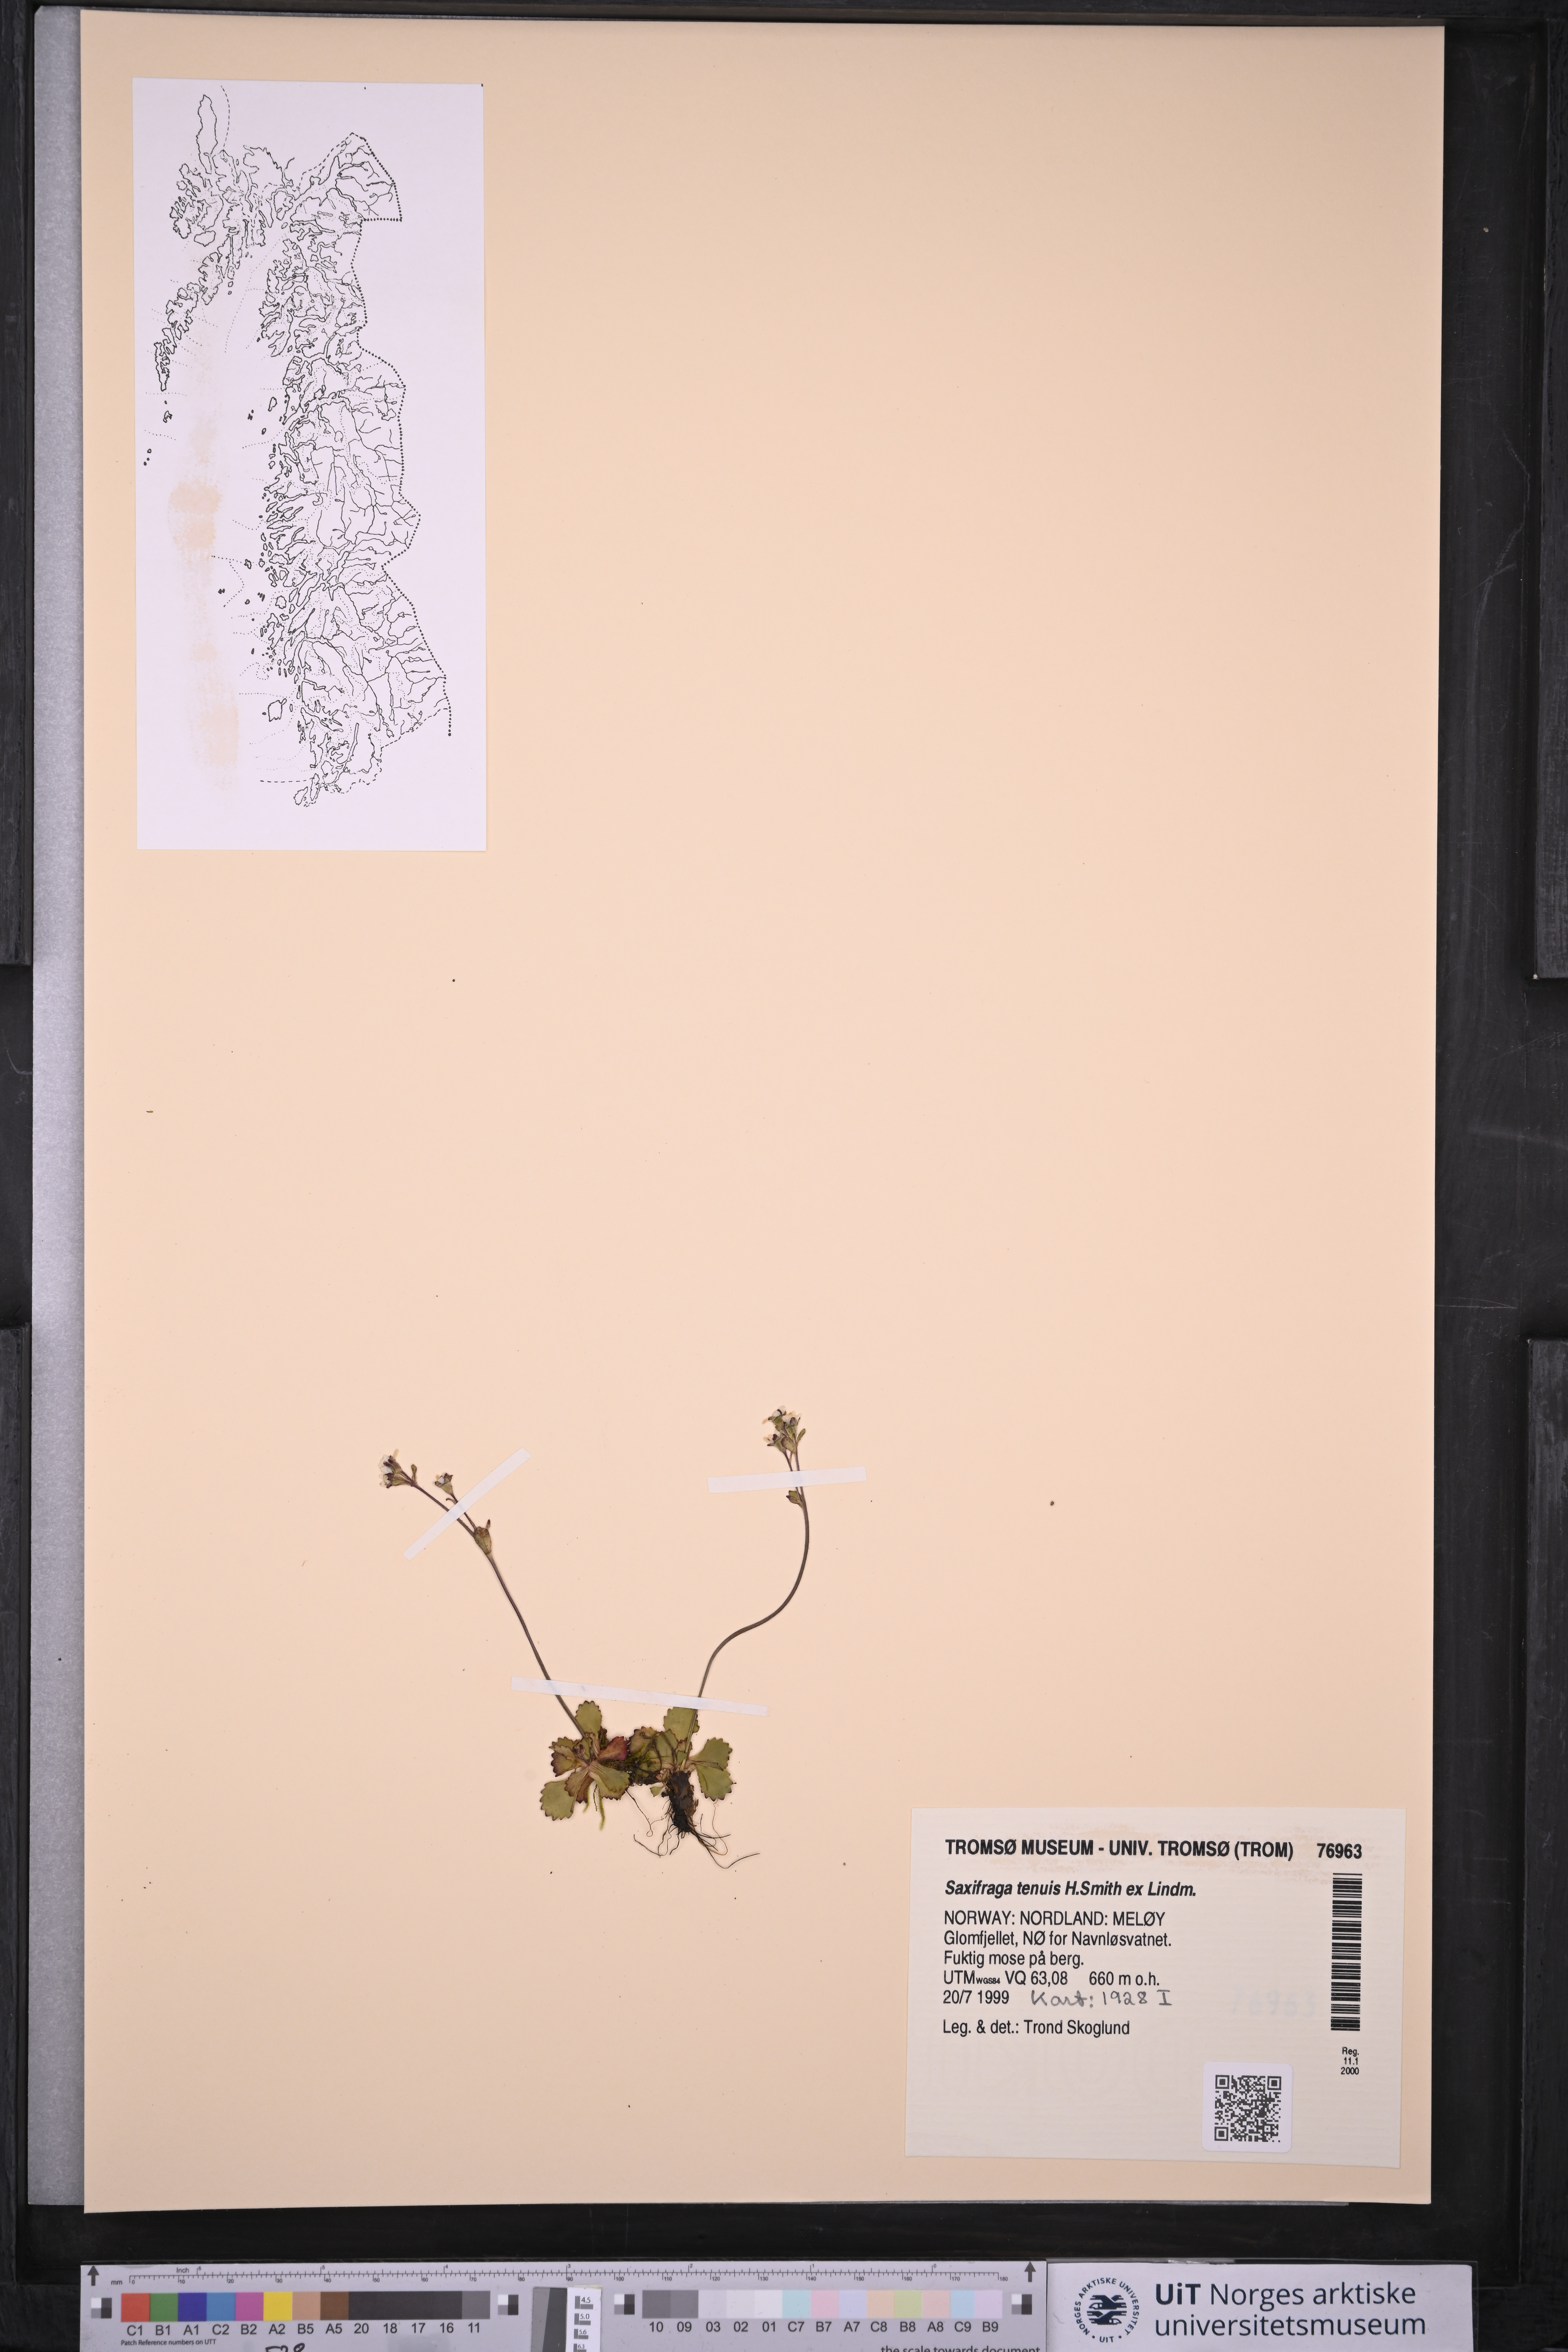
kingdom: Plantae
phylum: Tracheophyta
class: Magnoliopsida
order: Saxifragales
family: Saxifragaceae
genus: Micranthes
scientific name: Micranthes tenuis
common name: Ottertail pass saxifrage
